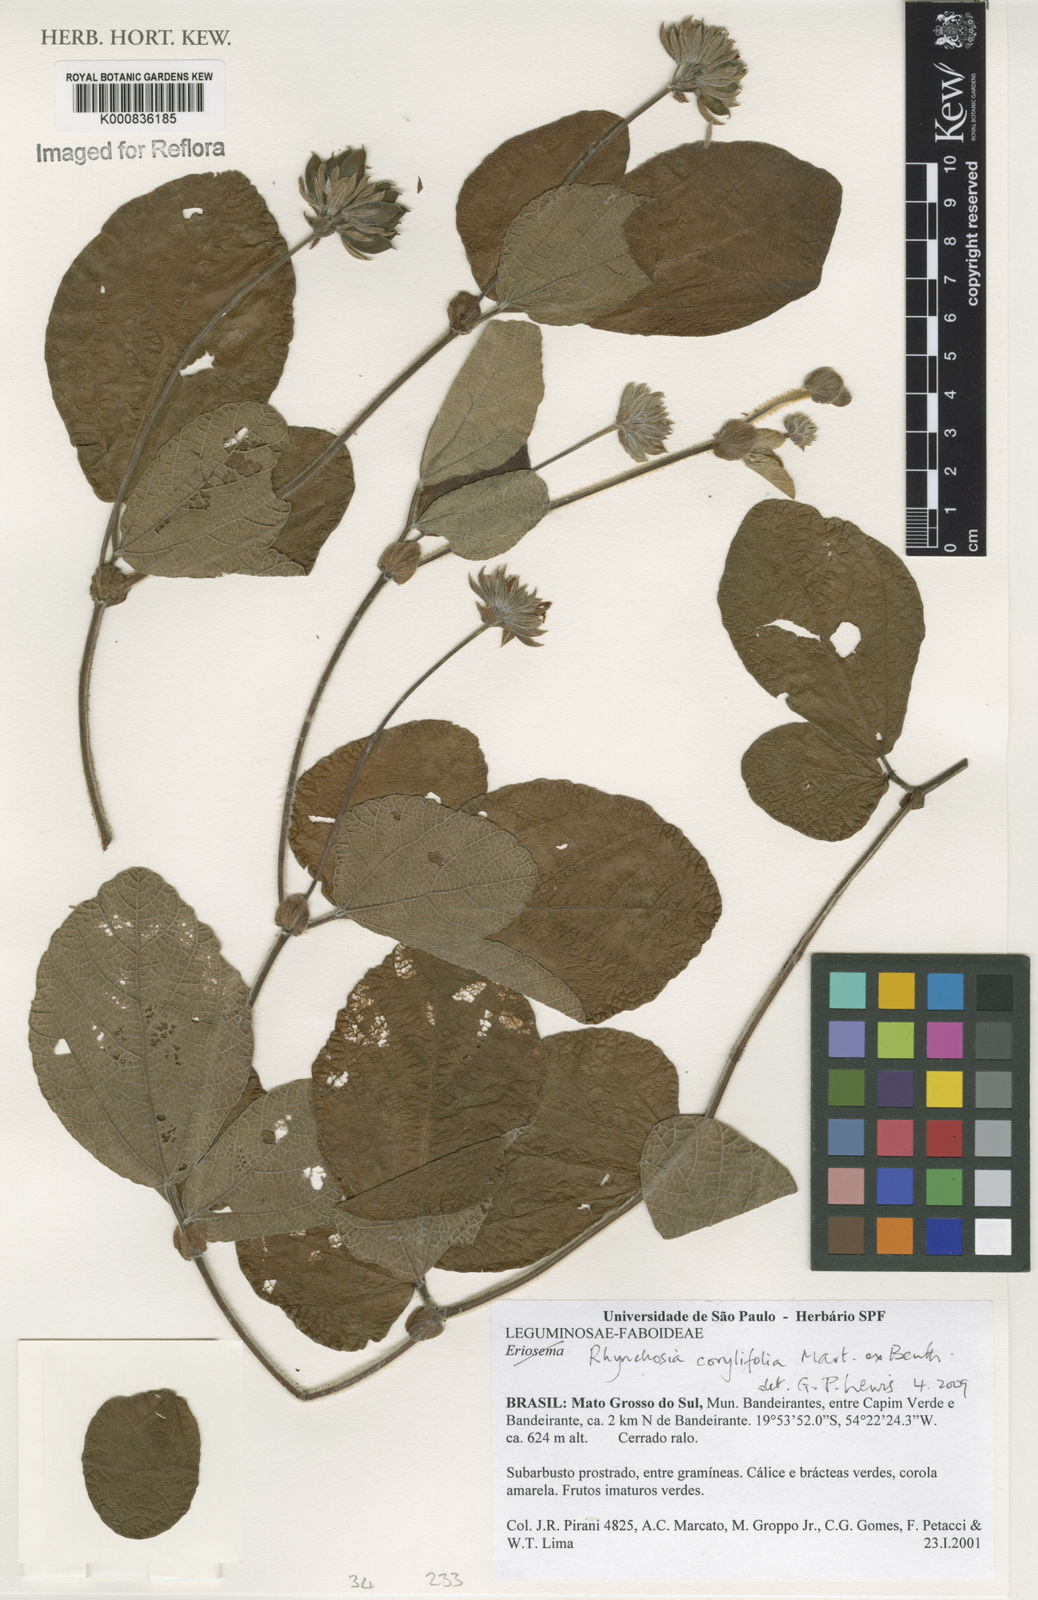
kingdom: Plantae
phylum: Tracheophyta
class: Magnoliopsida
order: Fabales
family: Fabaceae
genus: Rhynchosia
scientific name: Rhynchosia corylifolia
